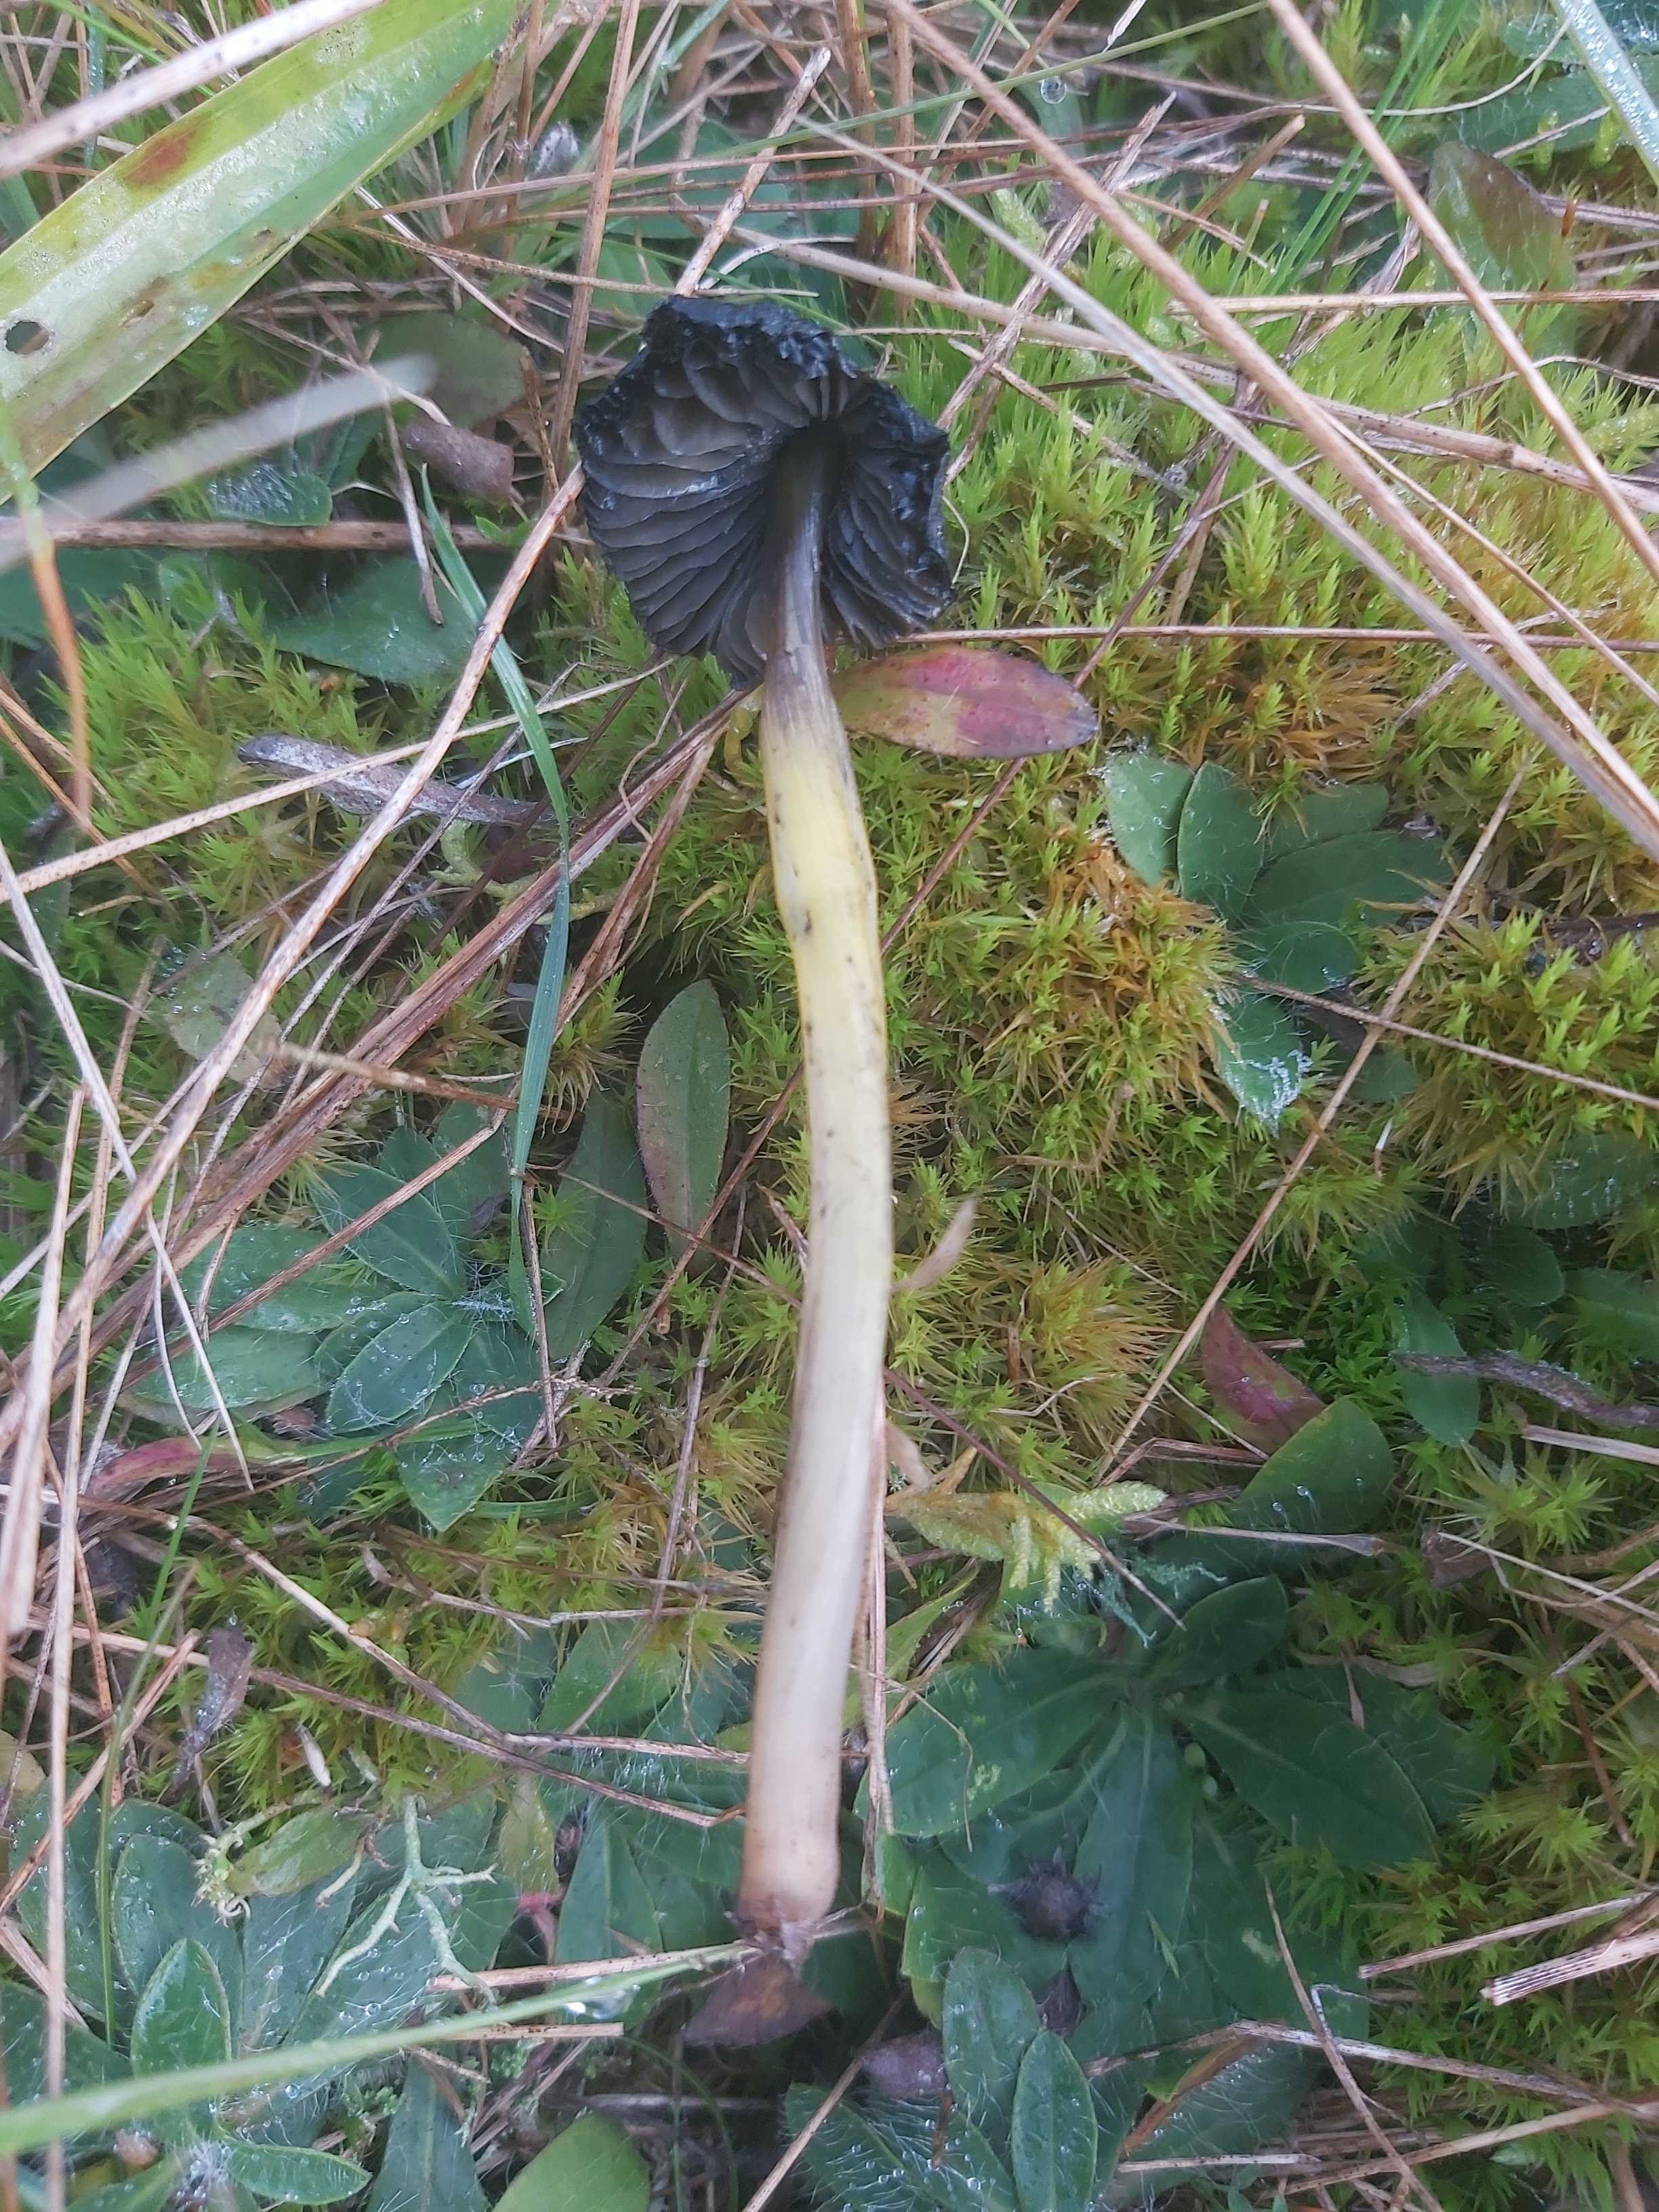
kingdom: Fungi
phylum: Basidiomycota
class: Agaricomycetes
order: Agaricales
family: Hygrophoraceae
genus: Hygrocybe
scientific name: Hygrocybe conica
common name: kegle-vokshat
